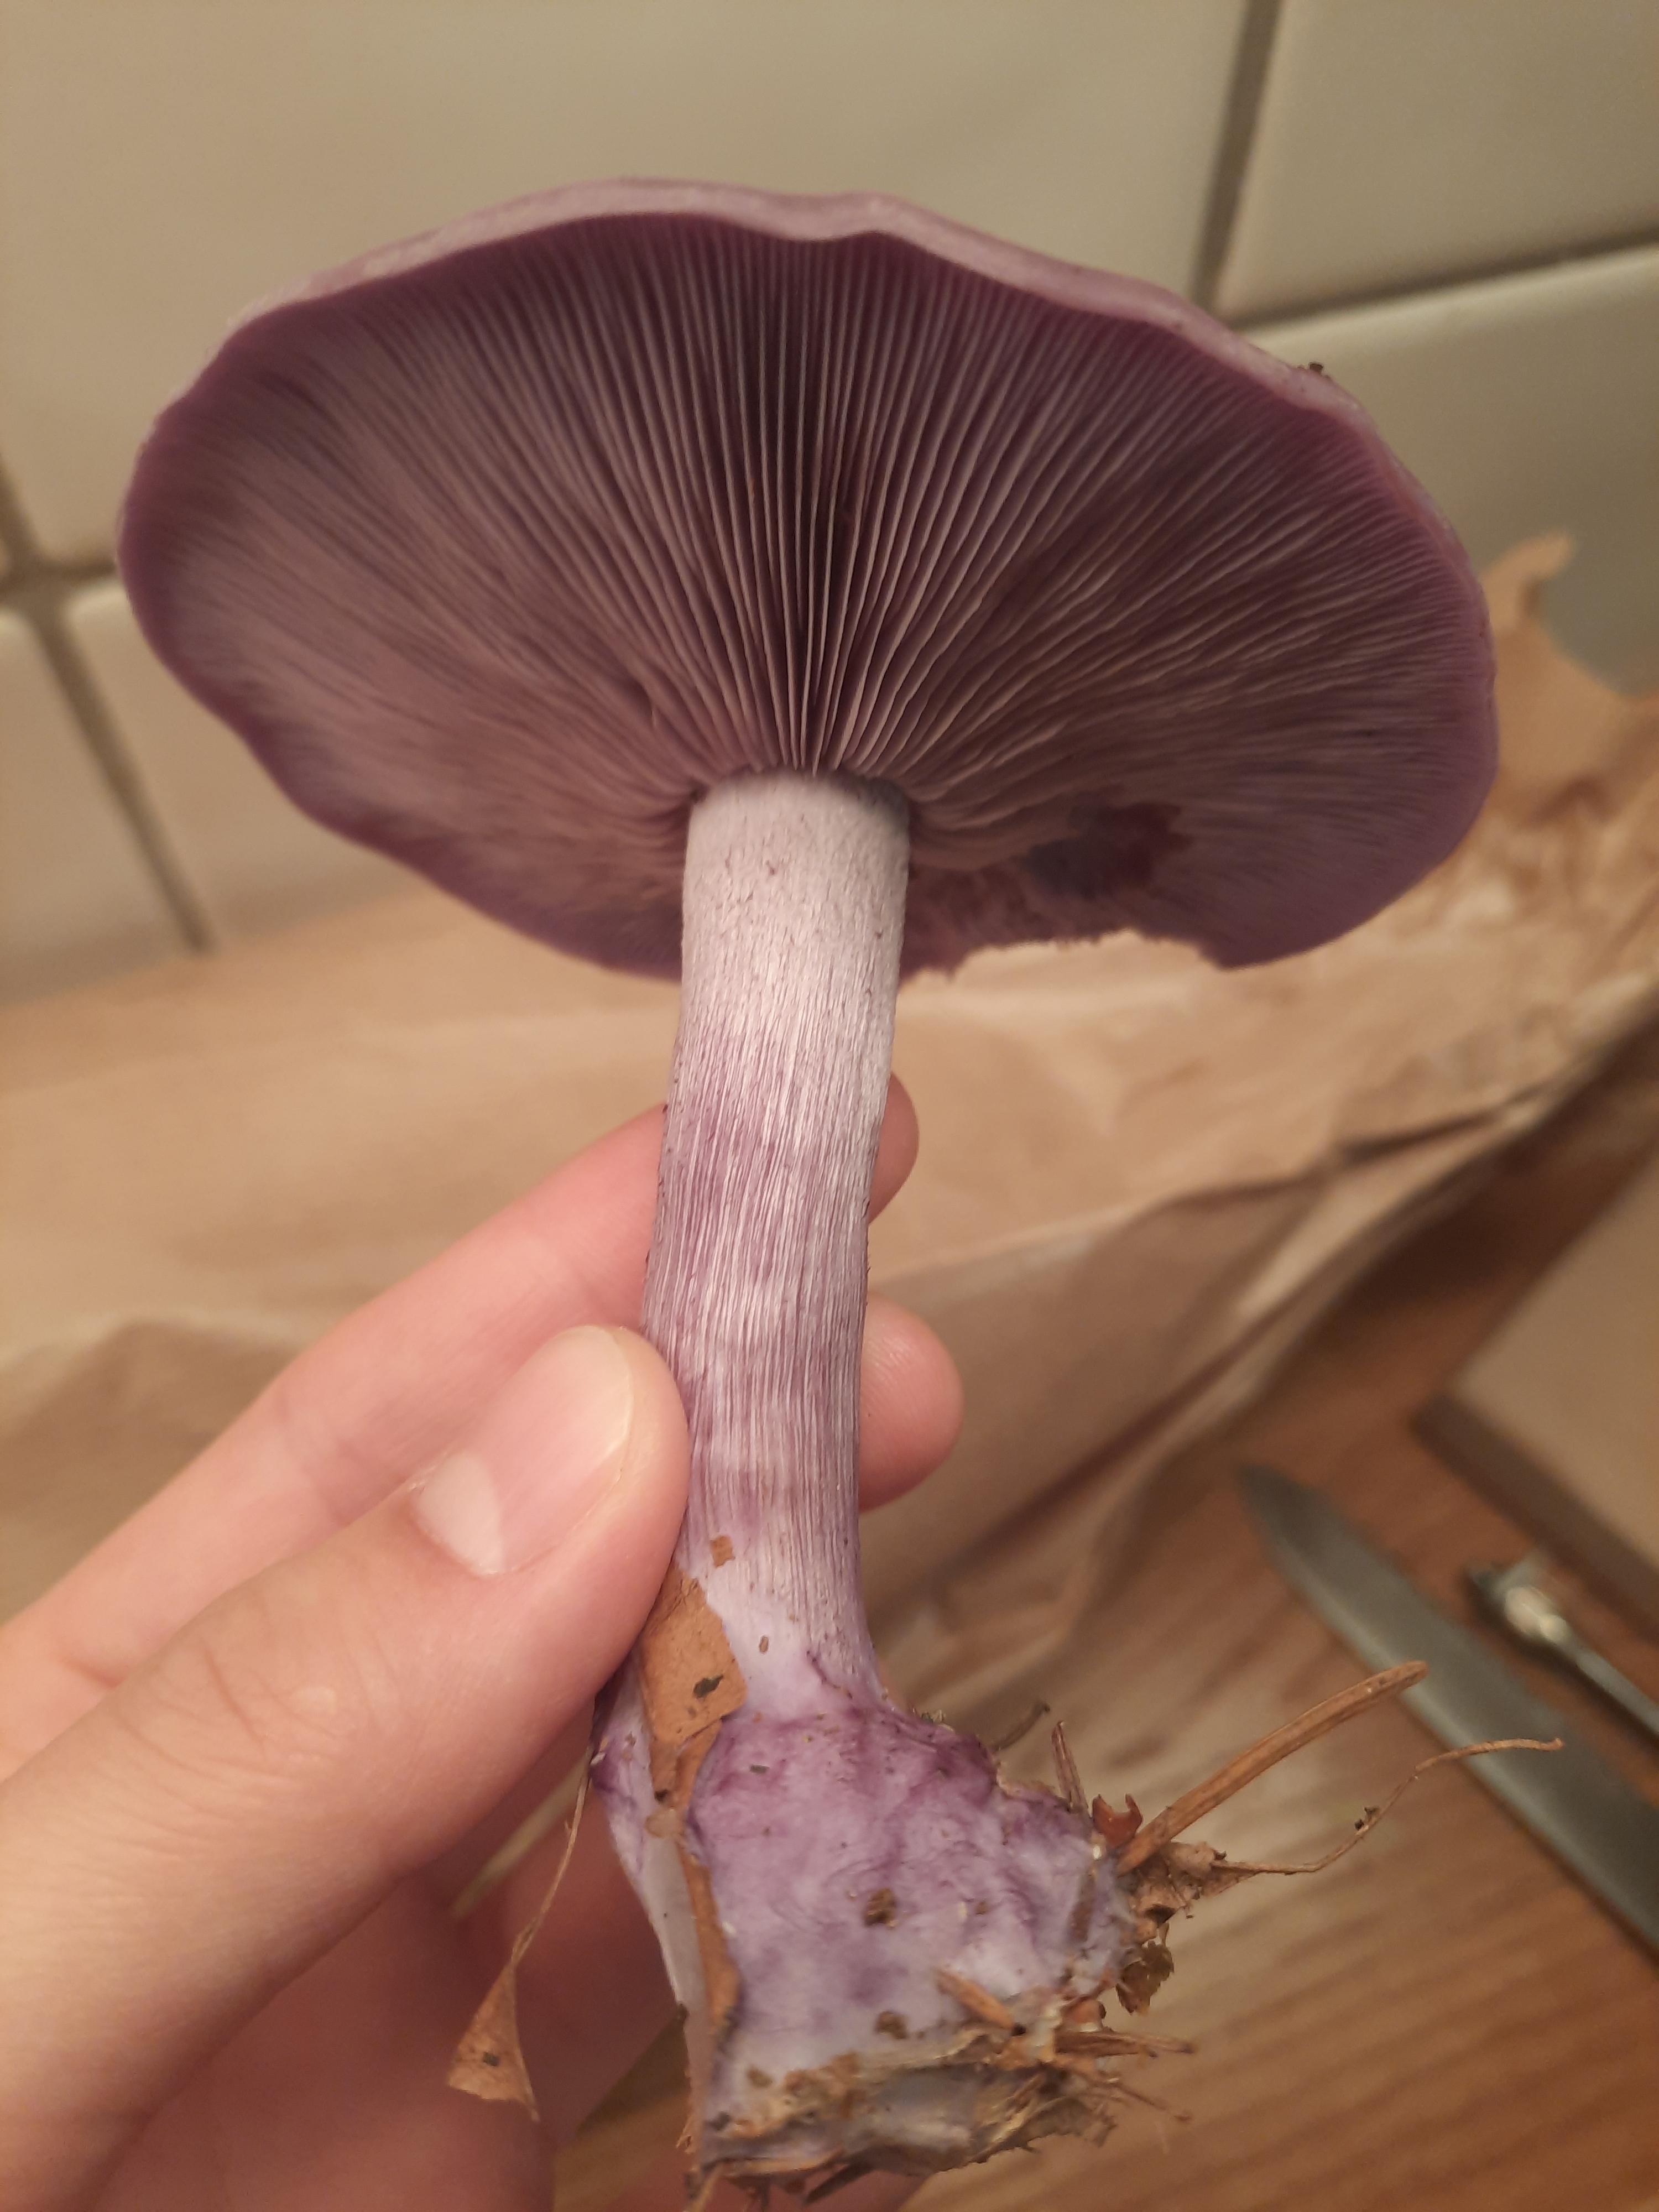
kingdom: Fungi
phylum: Basidiomycota
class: Agaricomycetes
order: Agaricales
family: Tricholomataceae
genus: Lepista
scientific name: Lepista nuda
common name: violet hekseringshat
